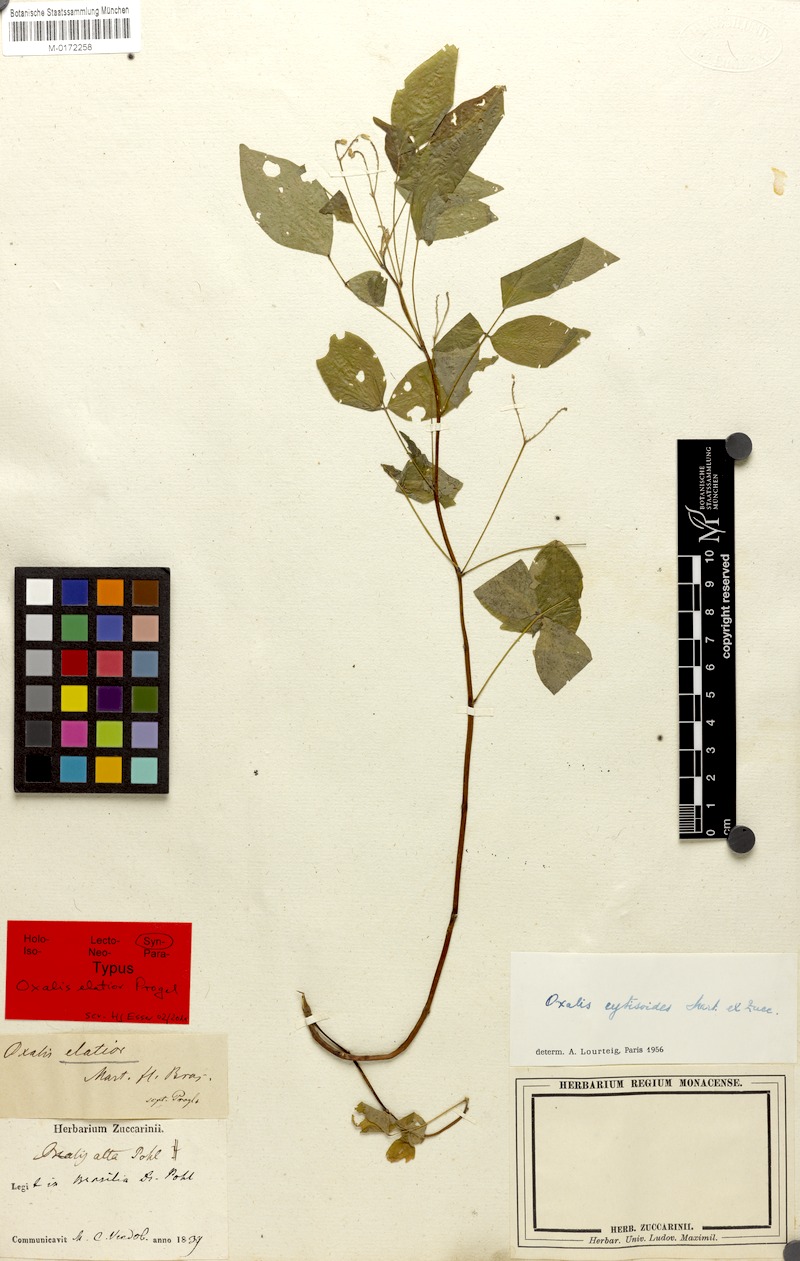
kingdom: Plantae
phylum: Tracheophyta
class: Magnoliopsida
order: Oxalidales
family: Oxalidaceae
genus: Oxalis
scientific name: Oxalis hedysarifolia
